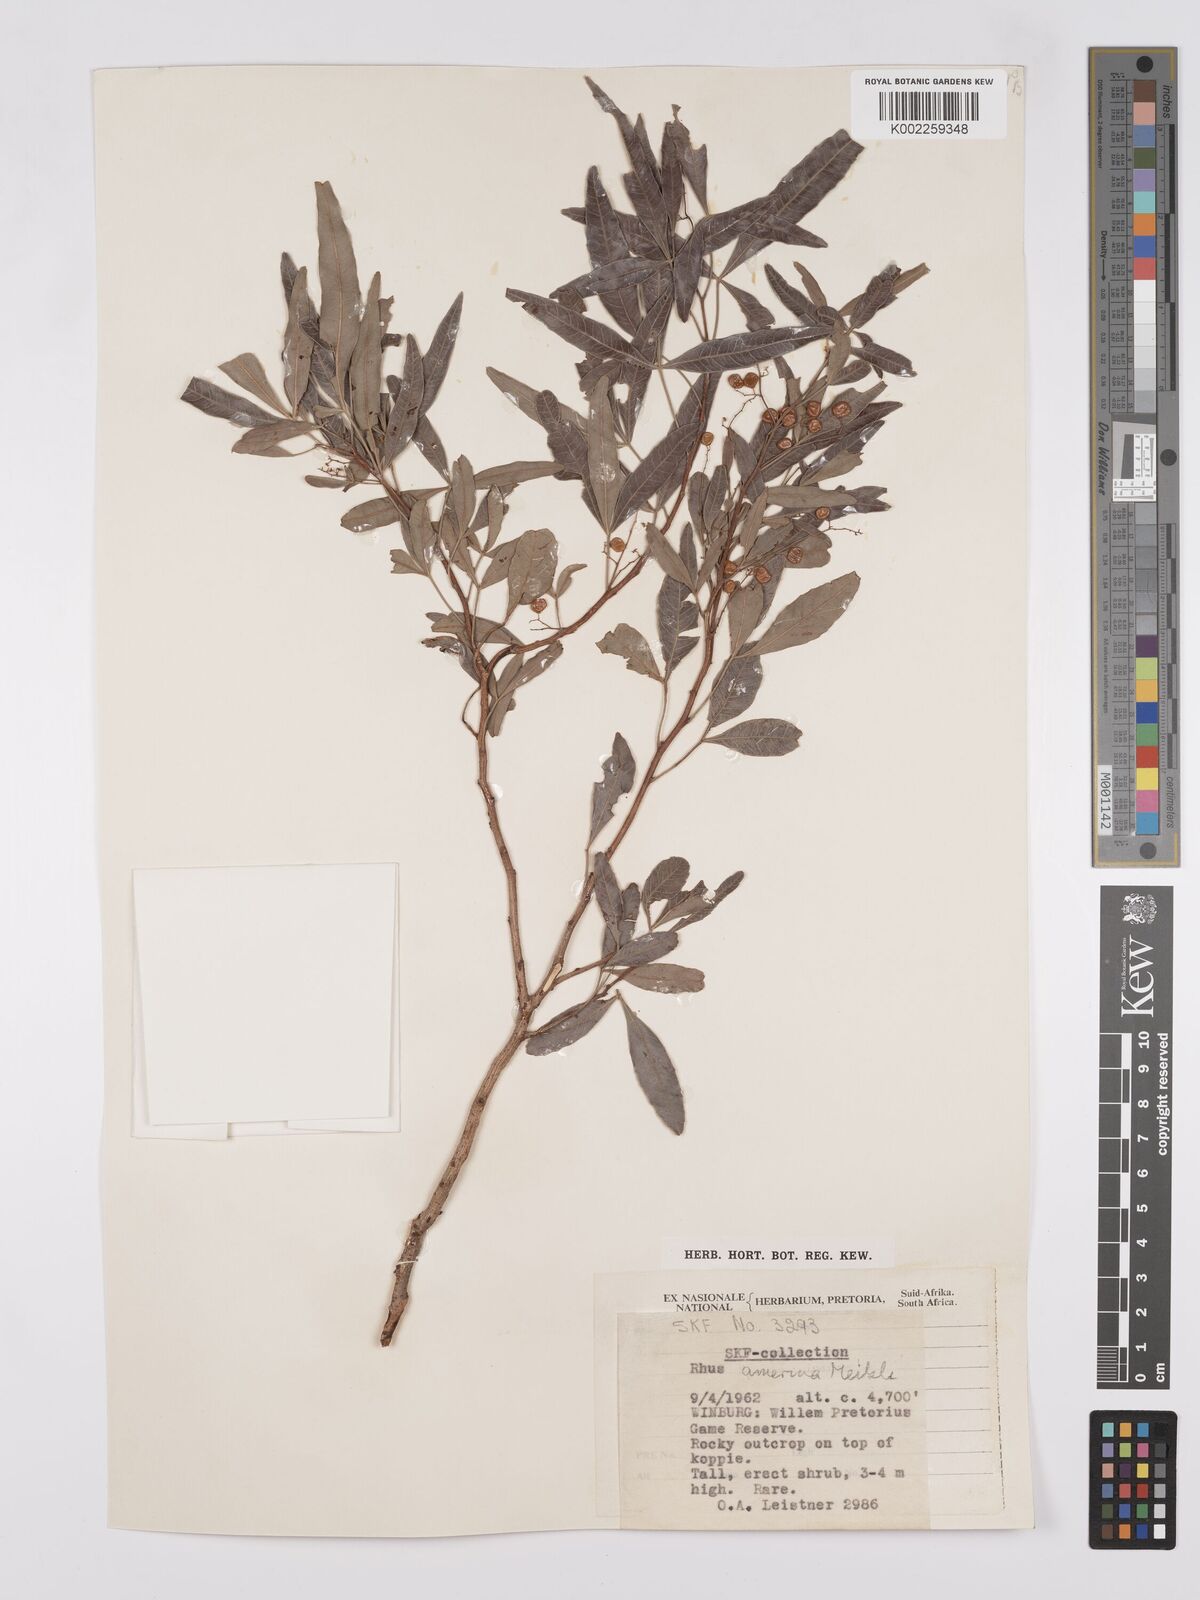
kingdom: Plantae
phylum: Tracheophyta
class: Magnoliopsida
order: Sapindales
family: Anacardiaceae
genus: Searsia
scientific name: Searsia leptodictya
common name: Mountain karee
